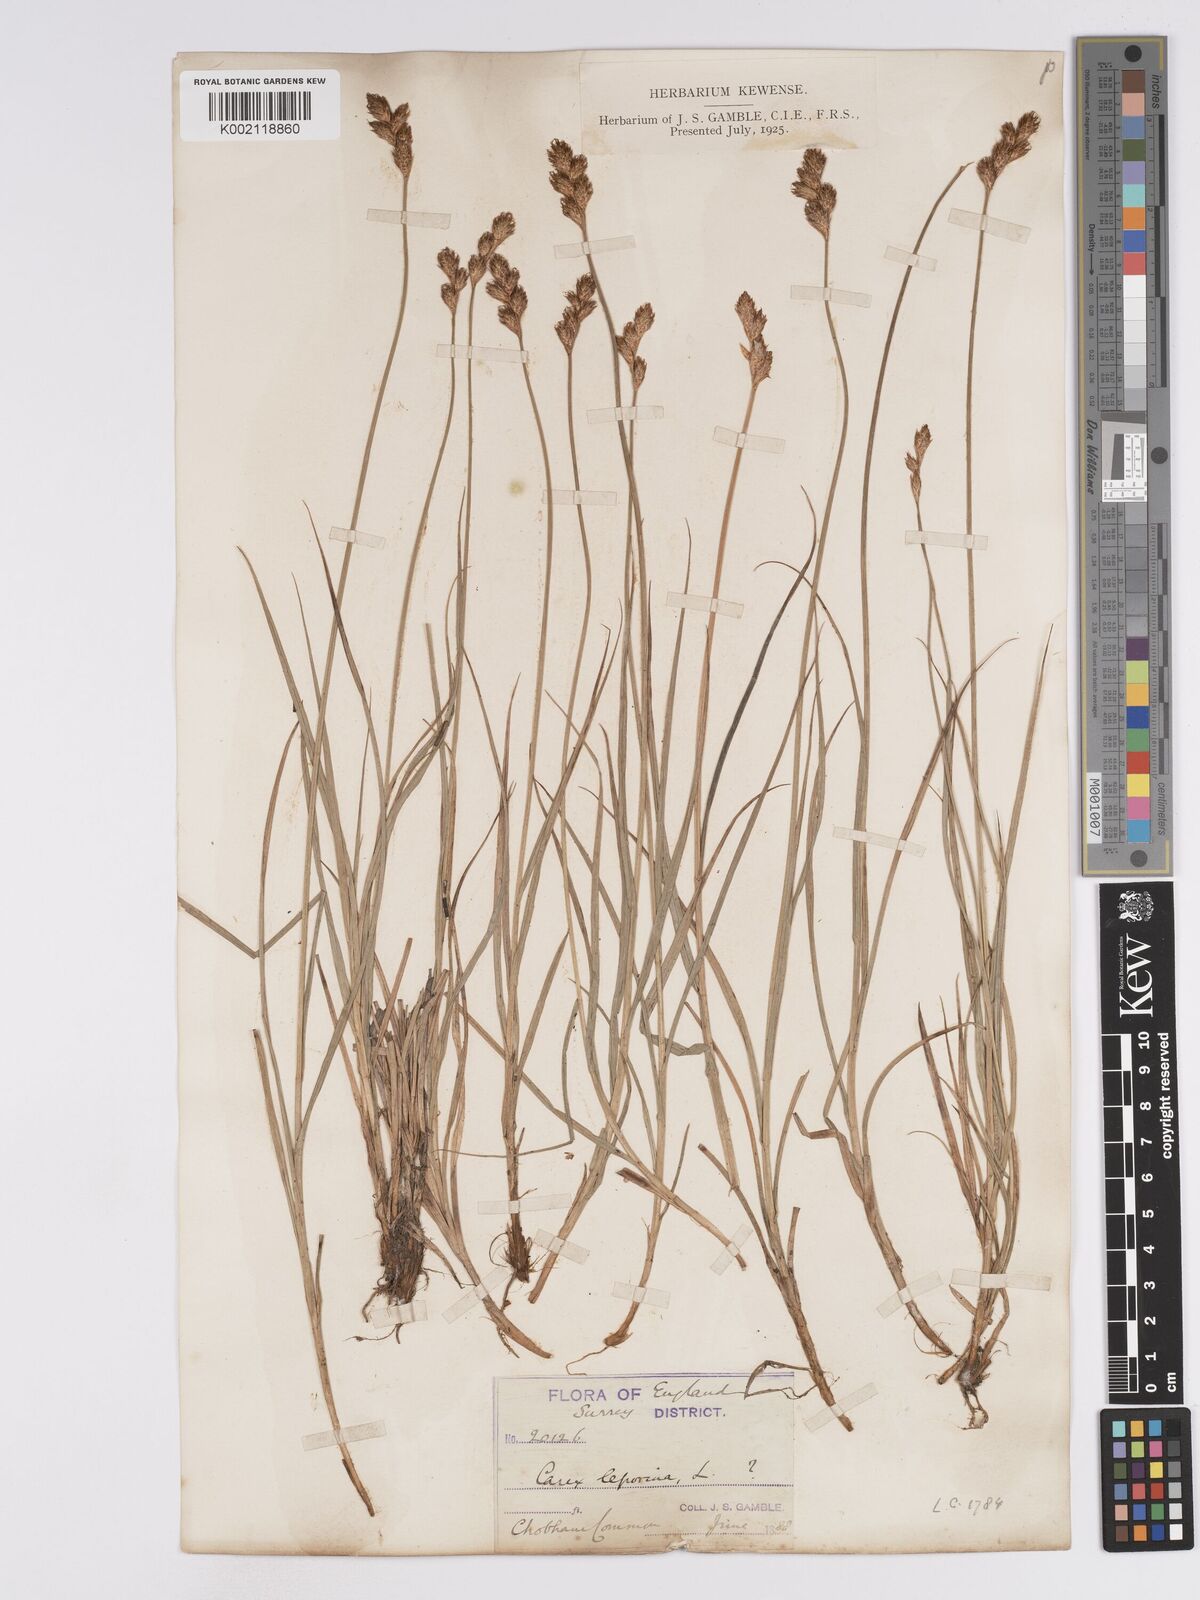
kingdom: Plantae
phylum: Tracheophyta
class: Liliopsida
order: Poales
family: Cyperaceae
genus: Carex
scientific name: Carex leporina
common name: Oval sedge
